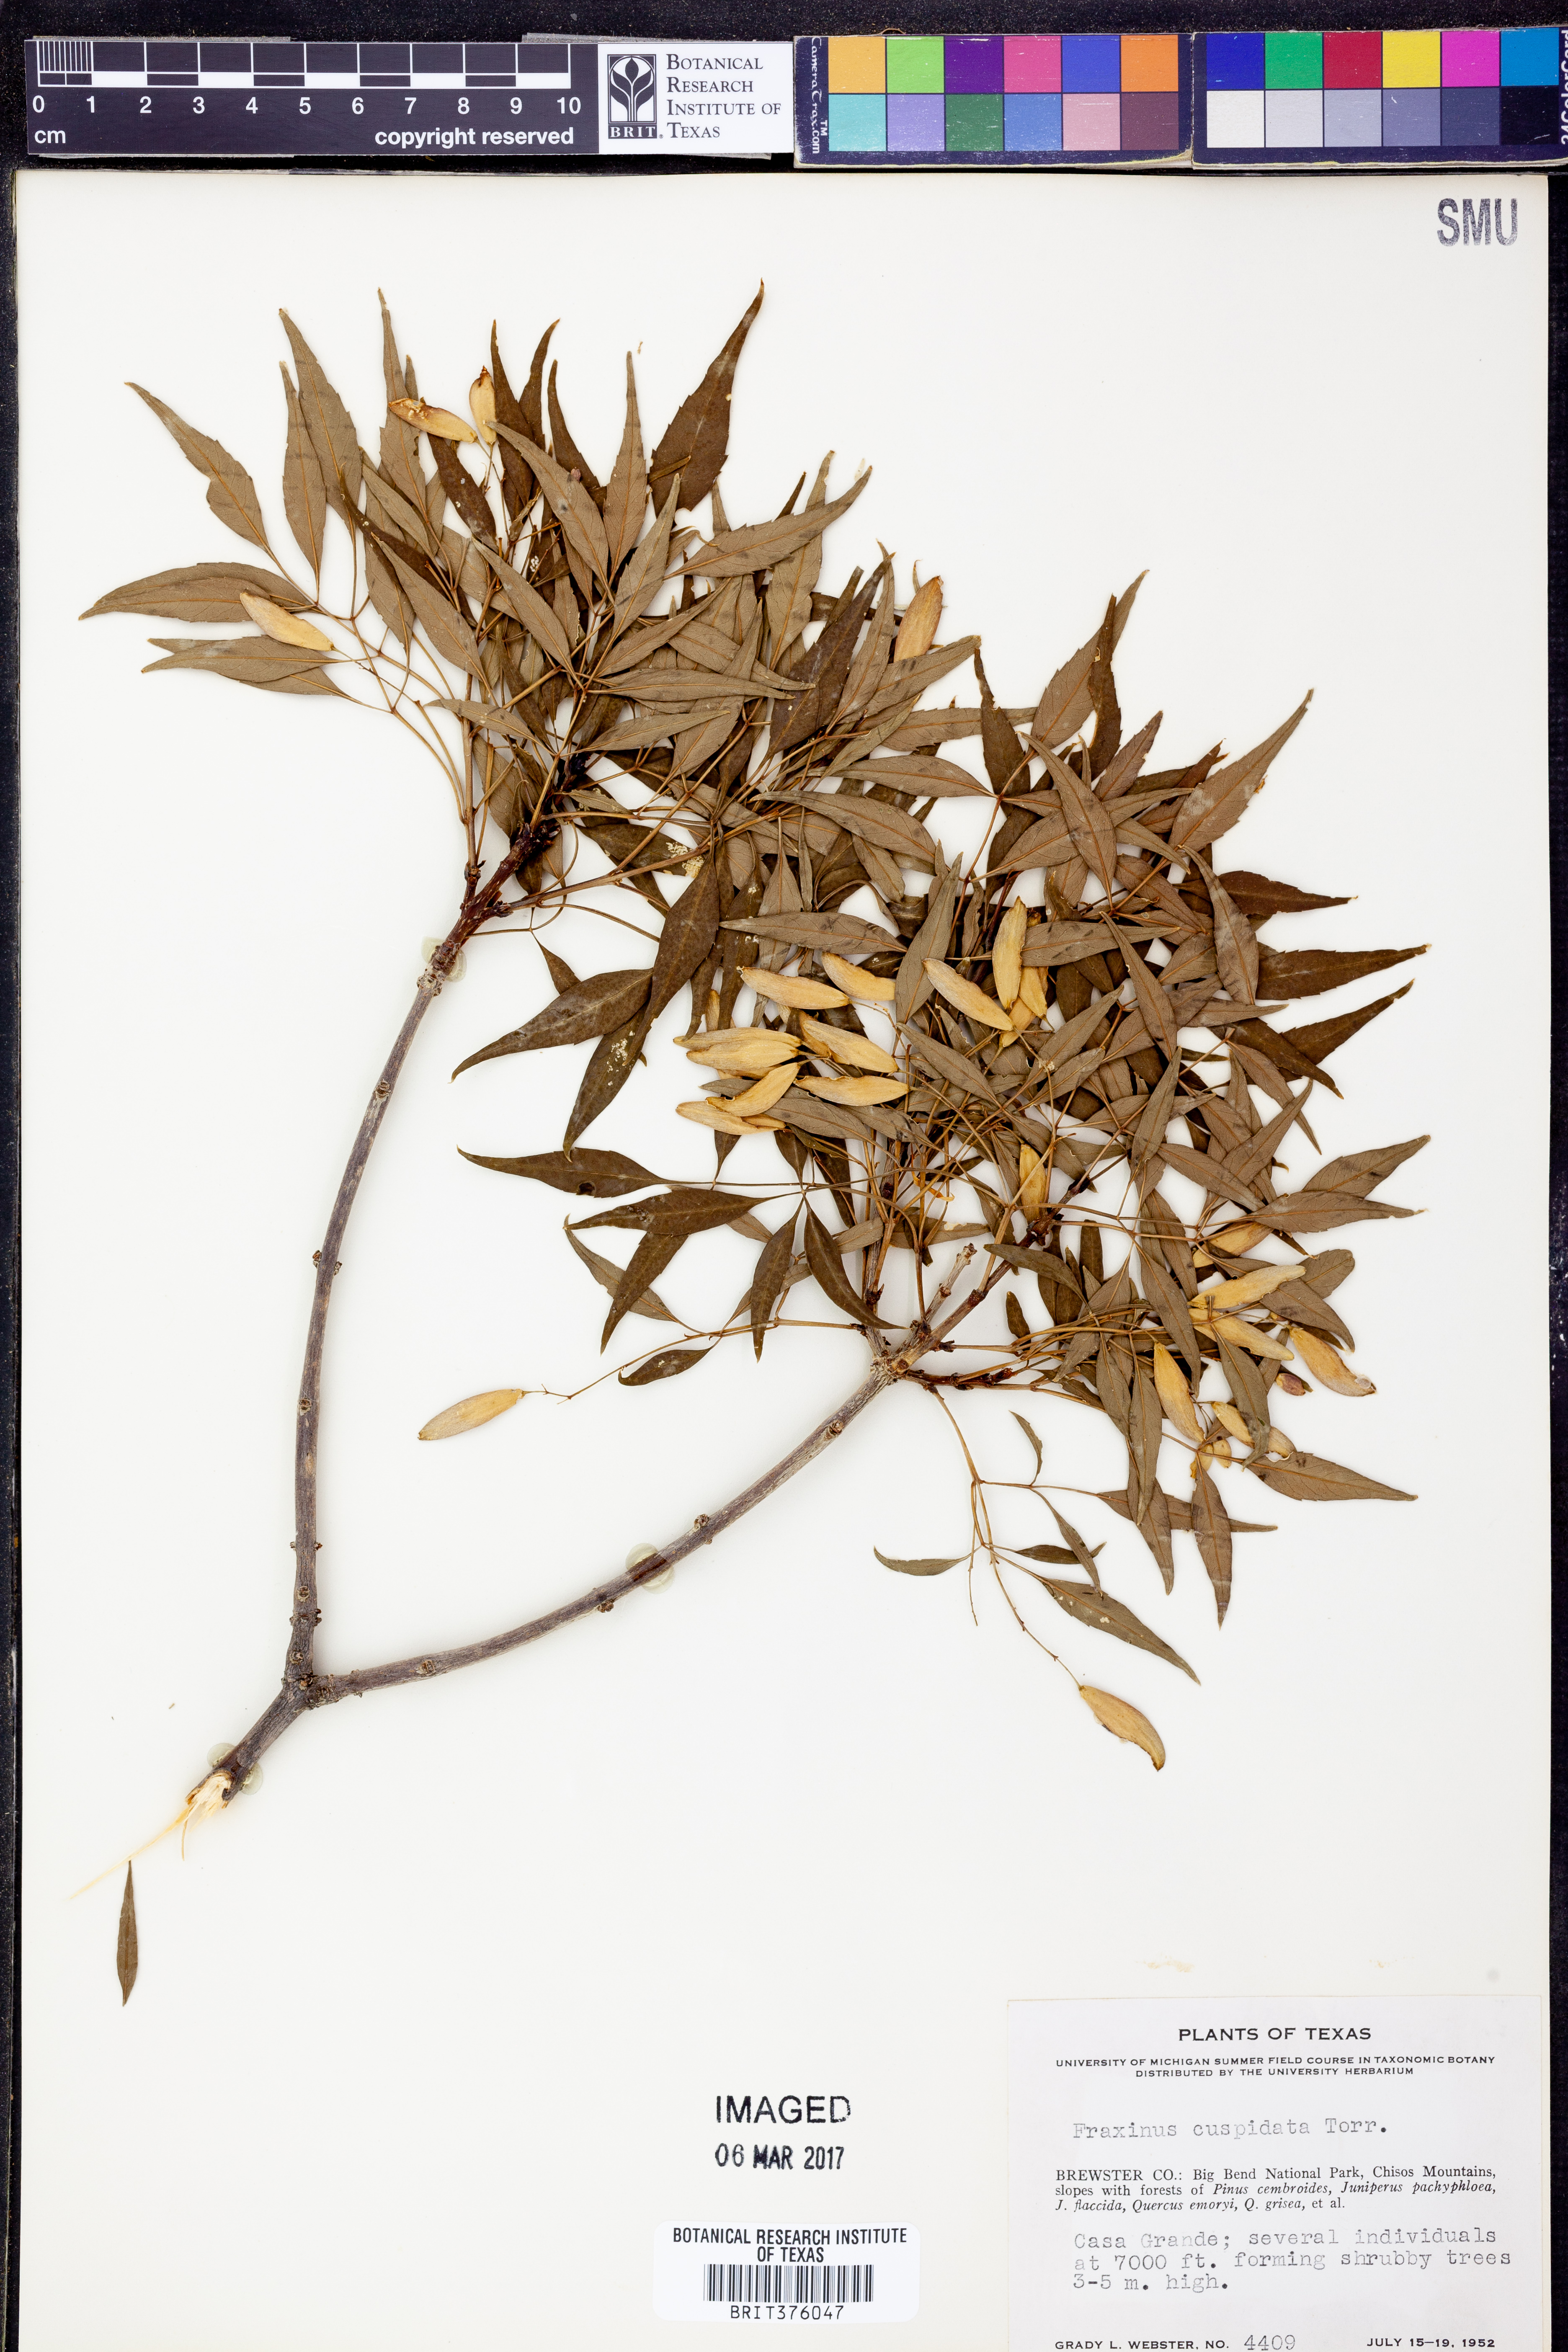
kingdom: Plantae
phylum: Tracheophyta
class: Magnoliopsida
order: Lamiales
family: Oleaceae
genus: Fraxinus
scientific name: Fraxinus cuspidata
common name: Fragrant ash
